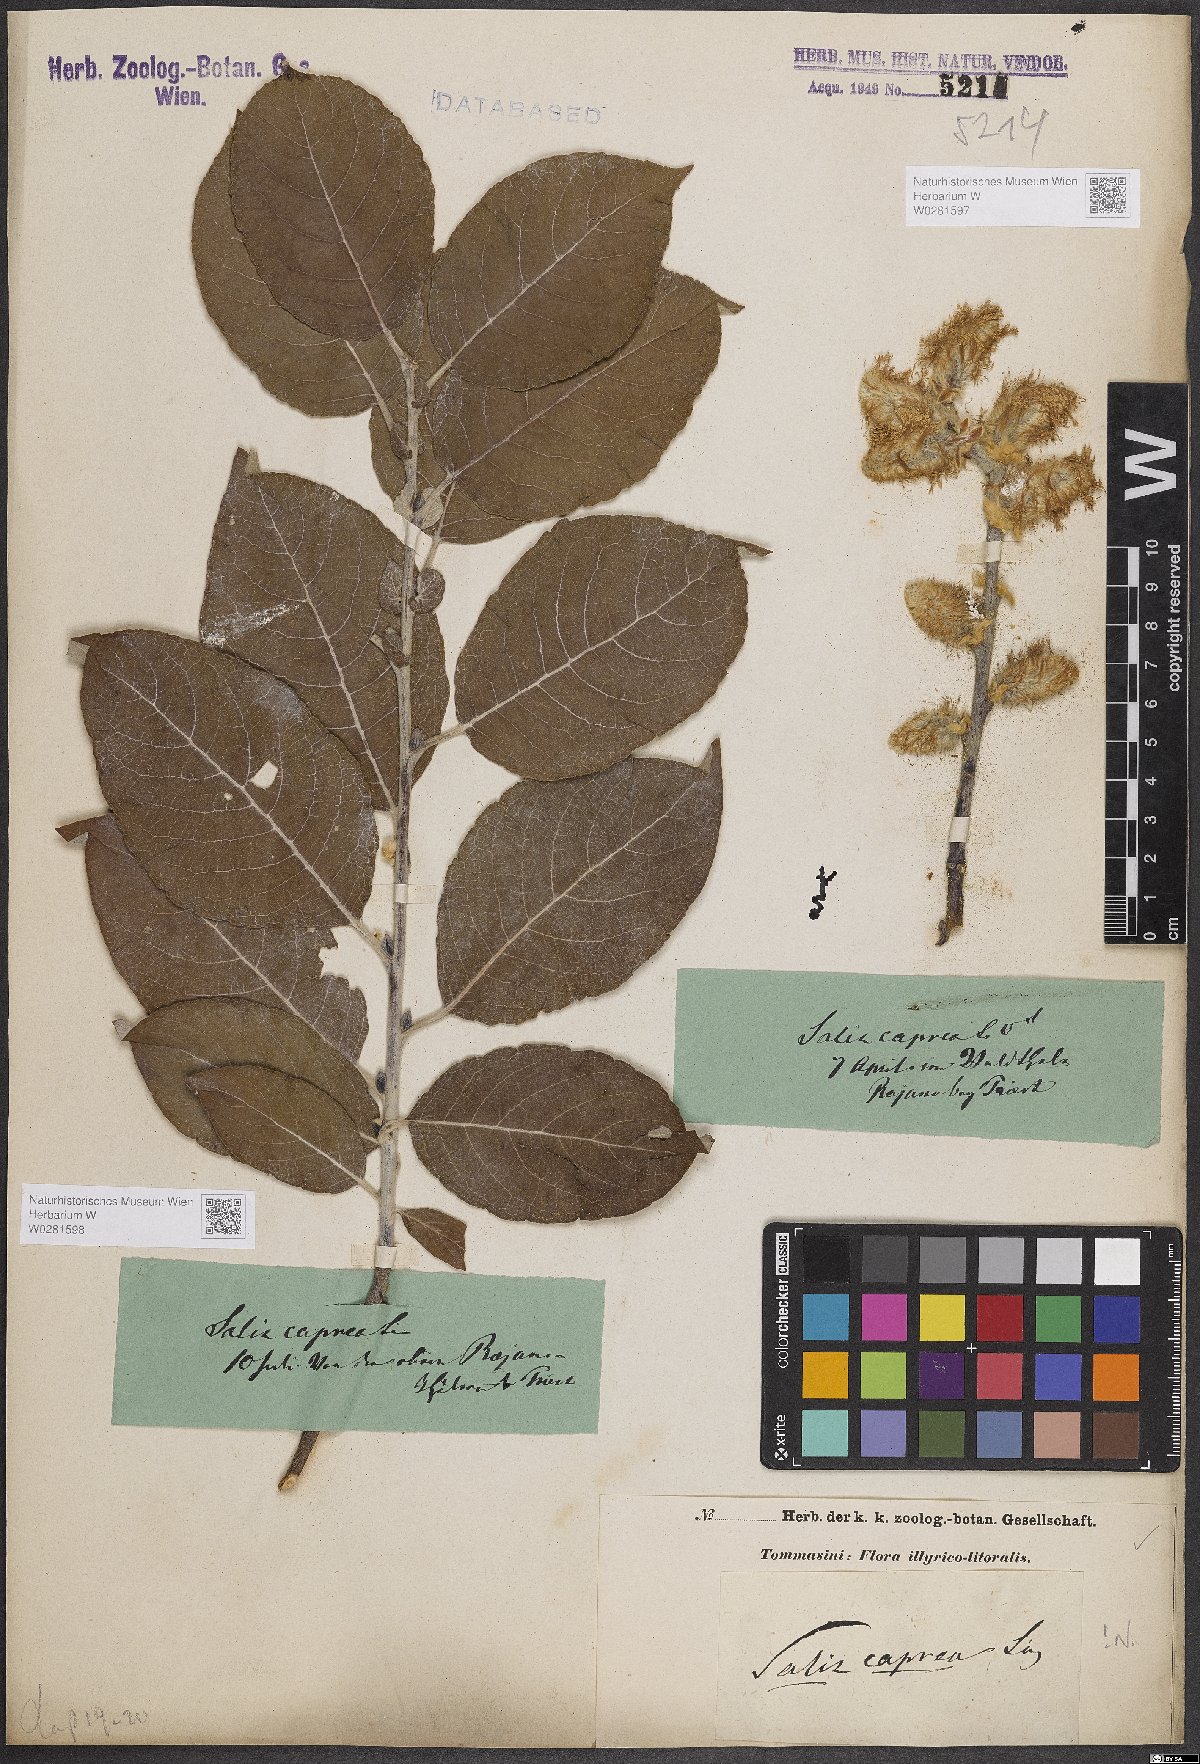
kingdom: Plantae
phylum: Tracheophyta
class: Magnoliopsida
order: Malpighiales
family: Salicaceae
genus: Salix
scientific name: Salix caprea
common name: Goat willow
